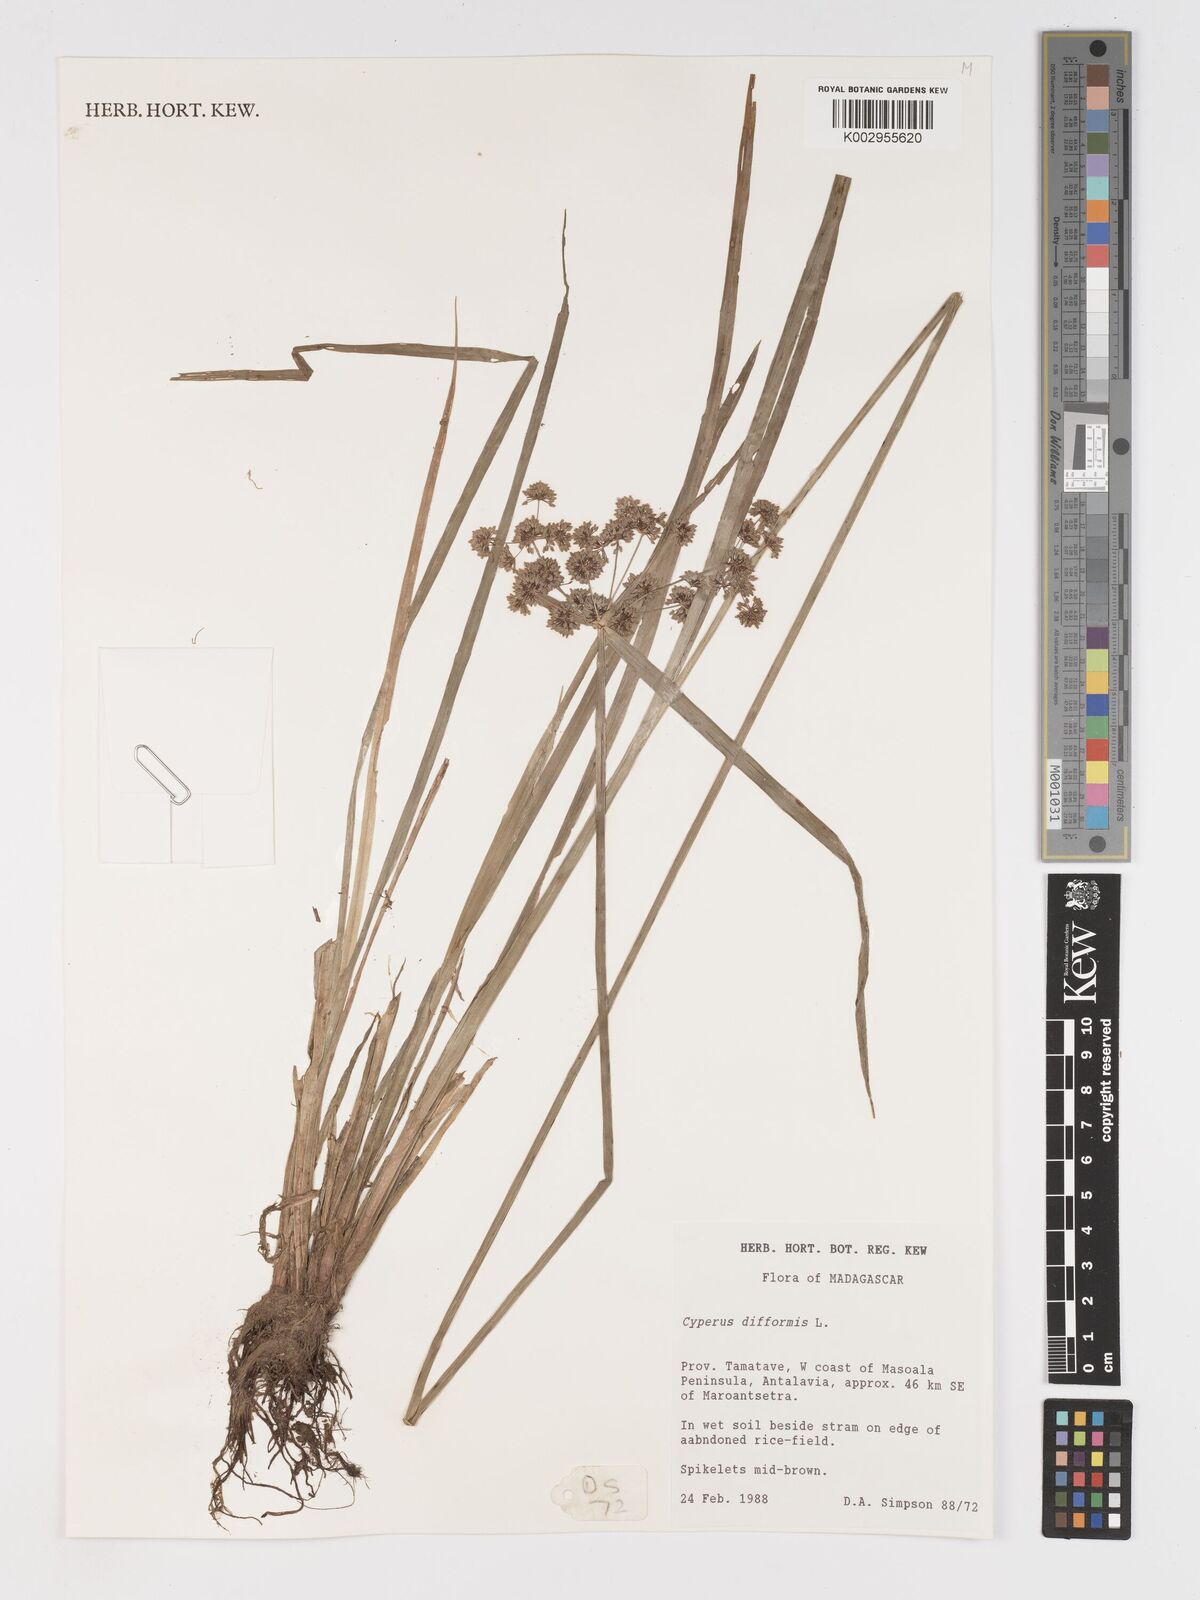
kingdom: Plantae
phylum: Tracheophyta
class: Liliopsida
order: Poales
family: Cyperaceae
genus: Cyperus
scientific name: Cyperus difformis
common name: Variable flatsedge
